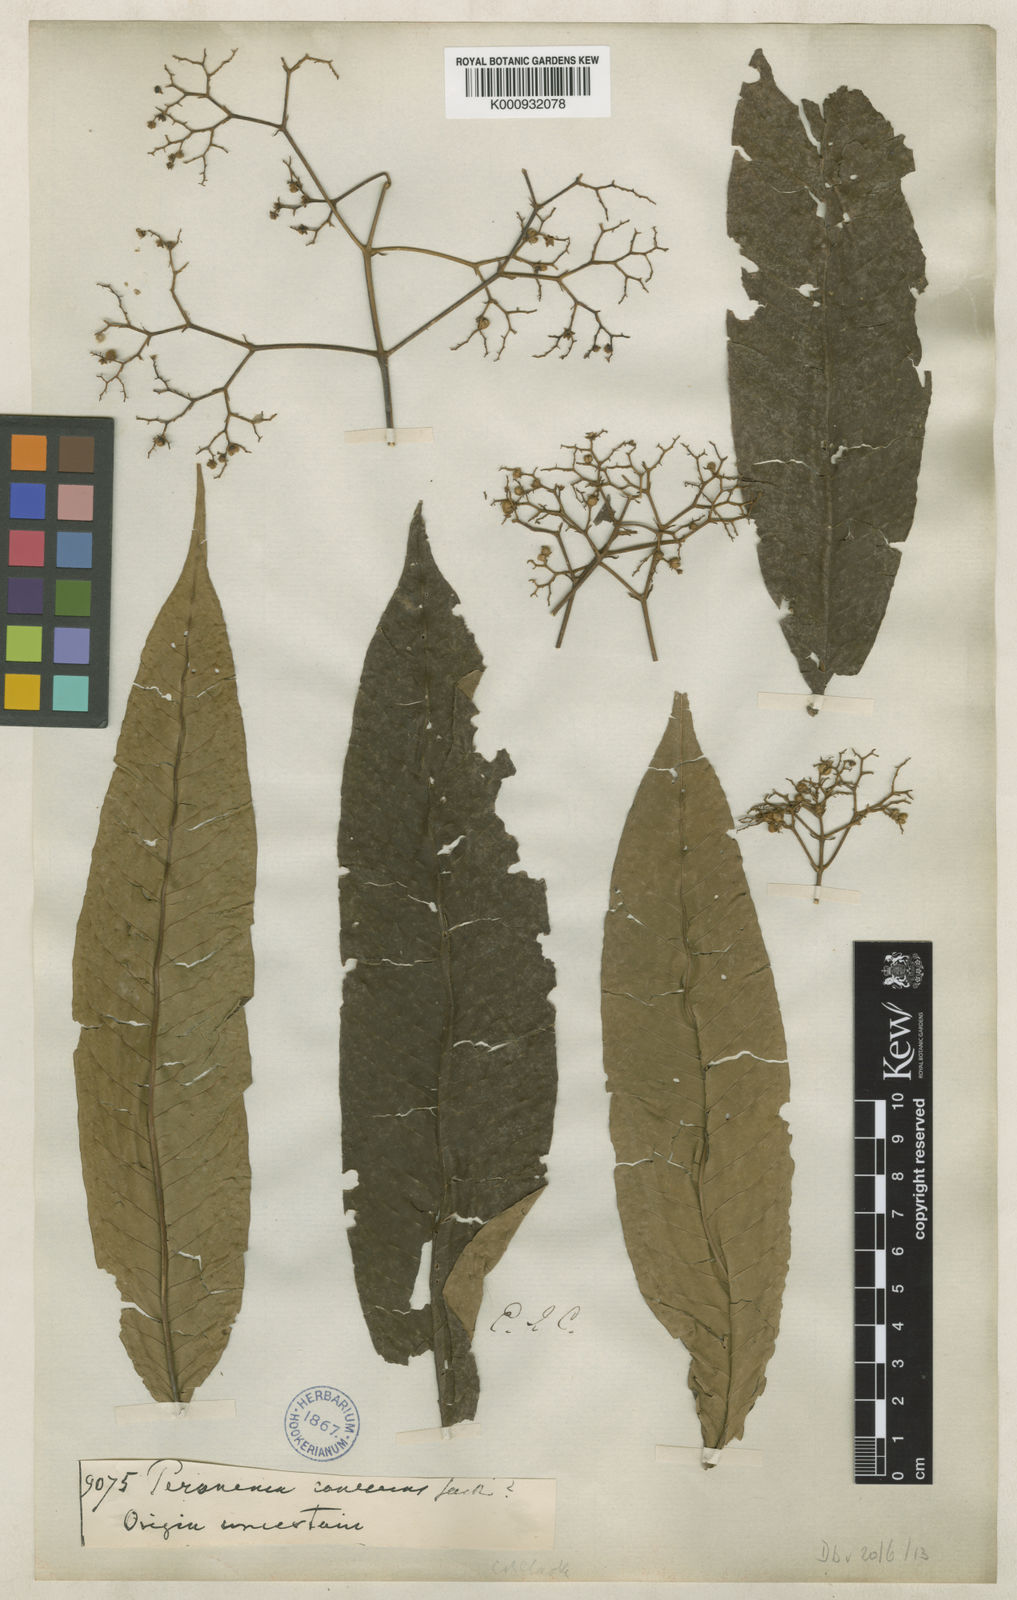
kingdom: Plantae
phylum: Tracheophyta
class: Magnoliopsida
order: Lamiales
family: Lamiaceae
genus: Peronema
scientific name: Peronema canescens
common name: False elder
